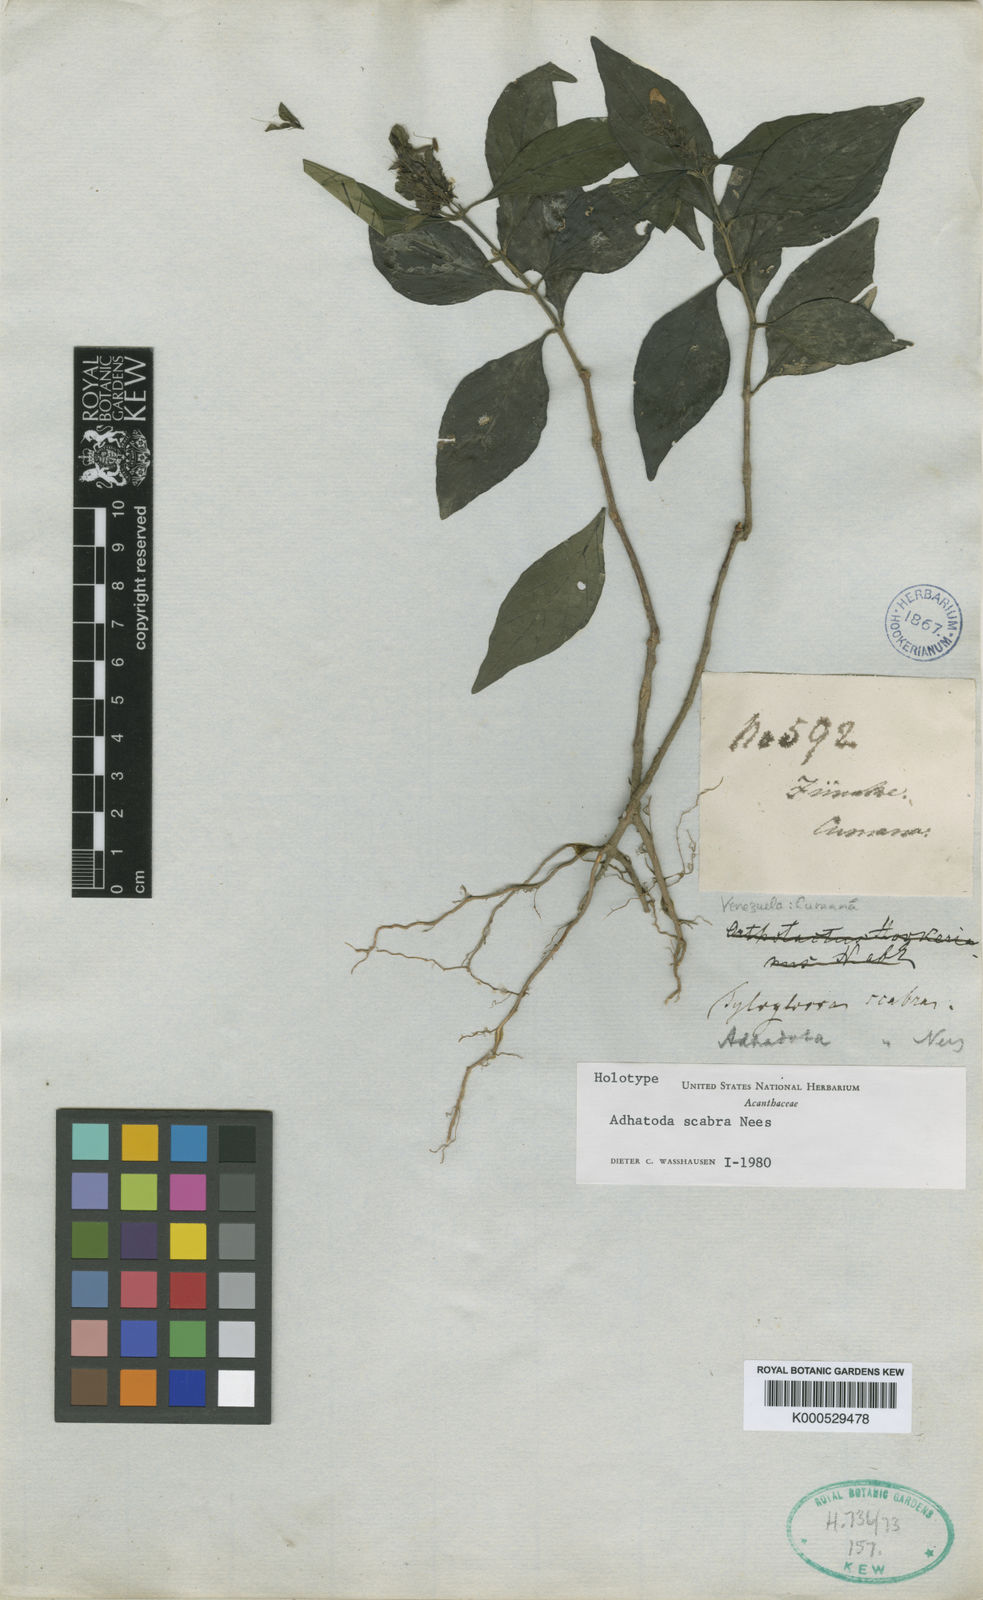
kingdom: Plantae
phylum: Tracheophyta
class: Magnoliopsida
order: Lamiales
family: Acanthaceae
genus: Aphelandra
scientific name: Aphelandra scabra
